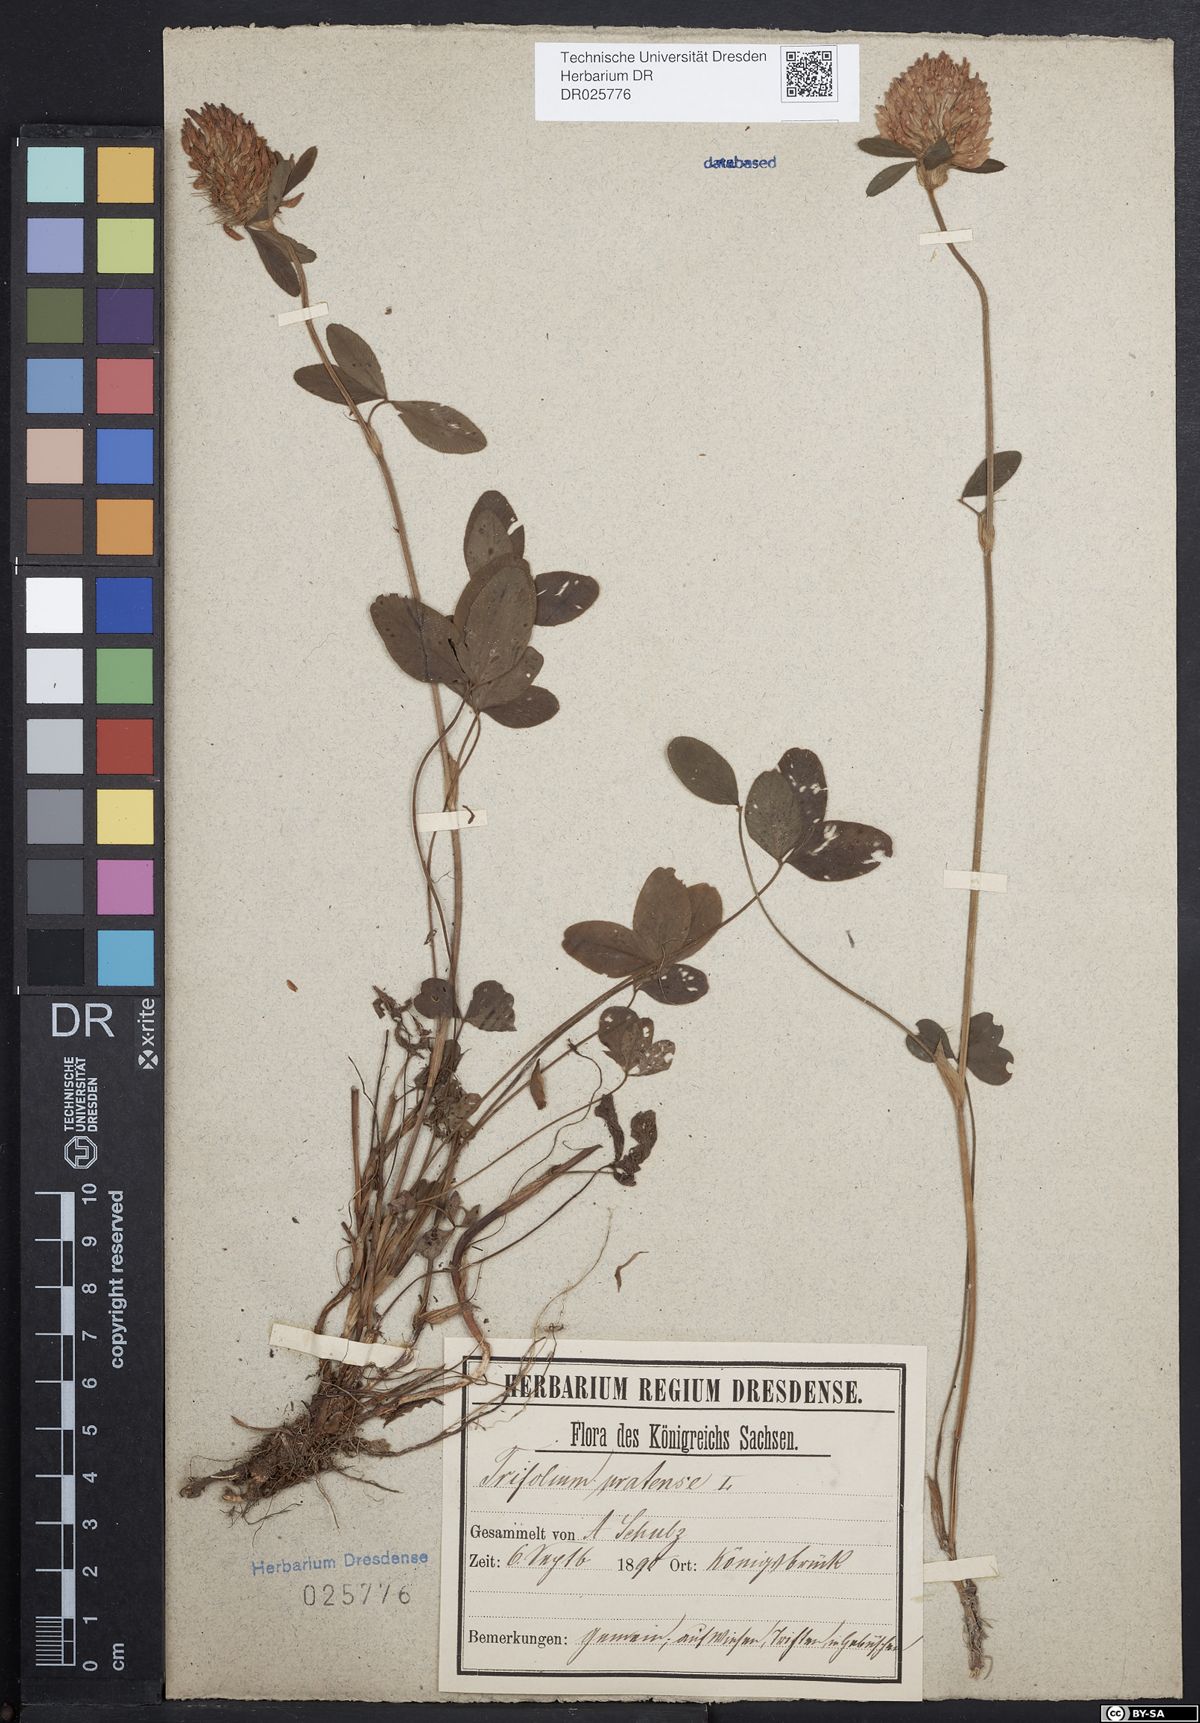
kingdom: Plantae
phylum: Tracheophyta
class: Magnoliopsida
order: Fabales
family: Fabaceae
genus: Trifolium
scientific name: Trifolium pratense
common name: Red clover
